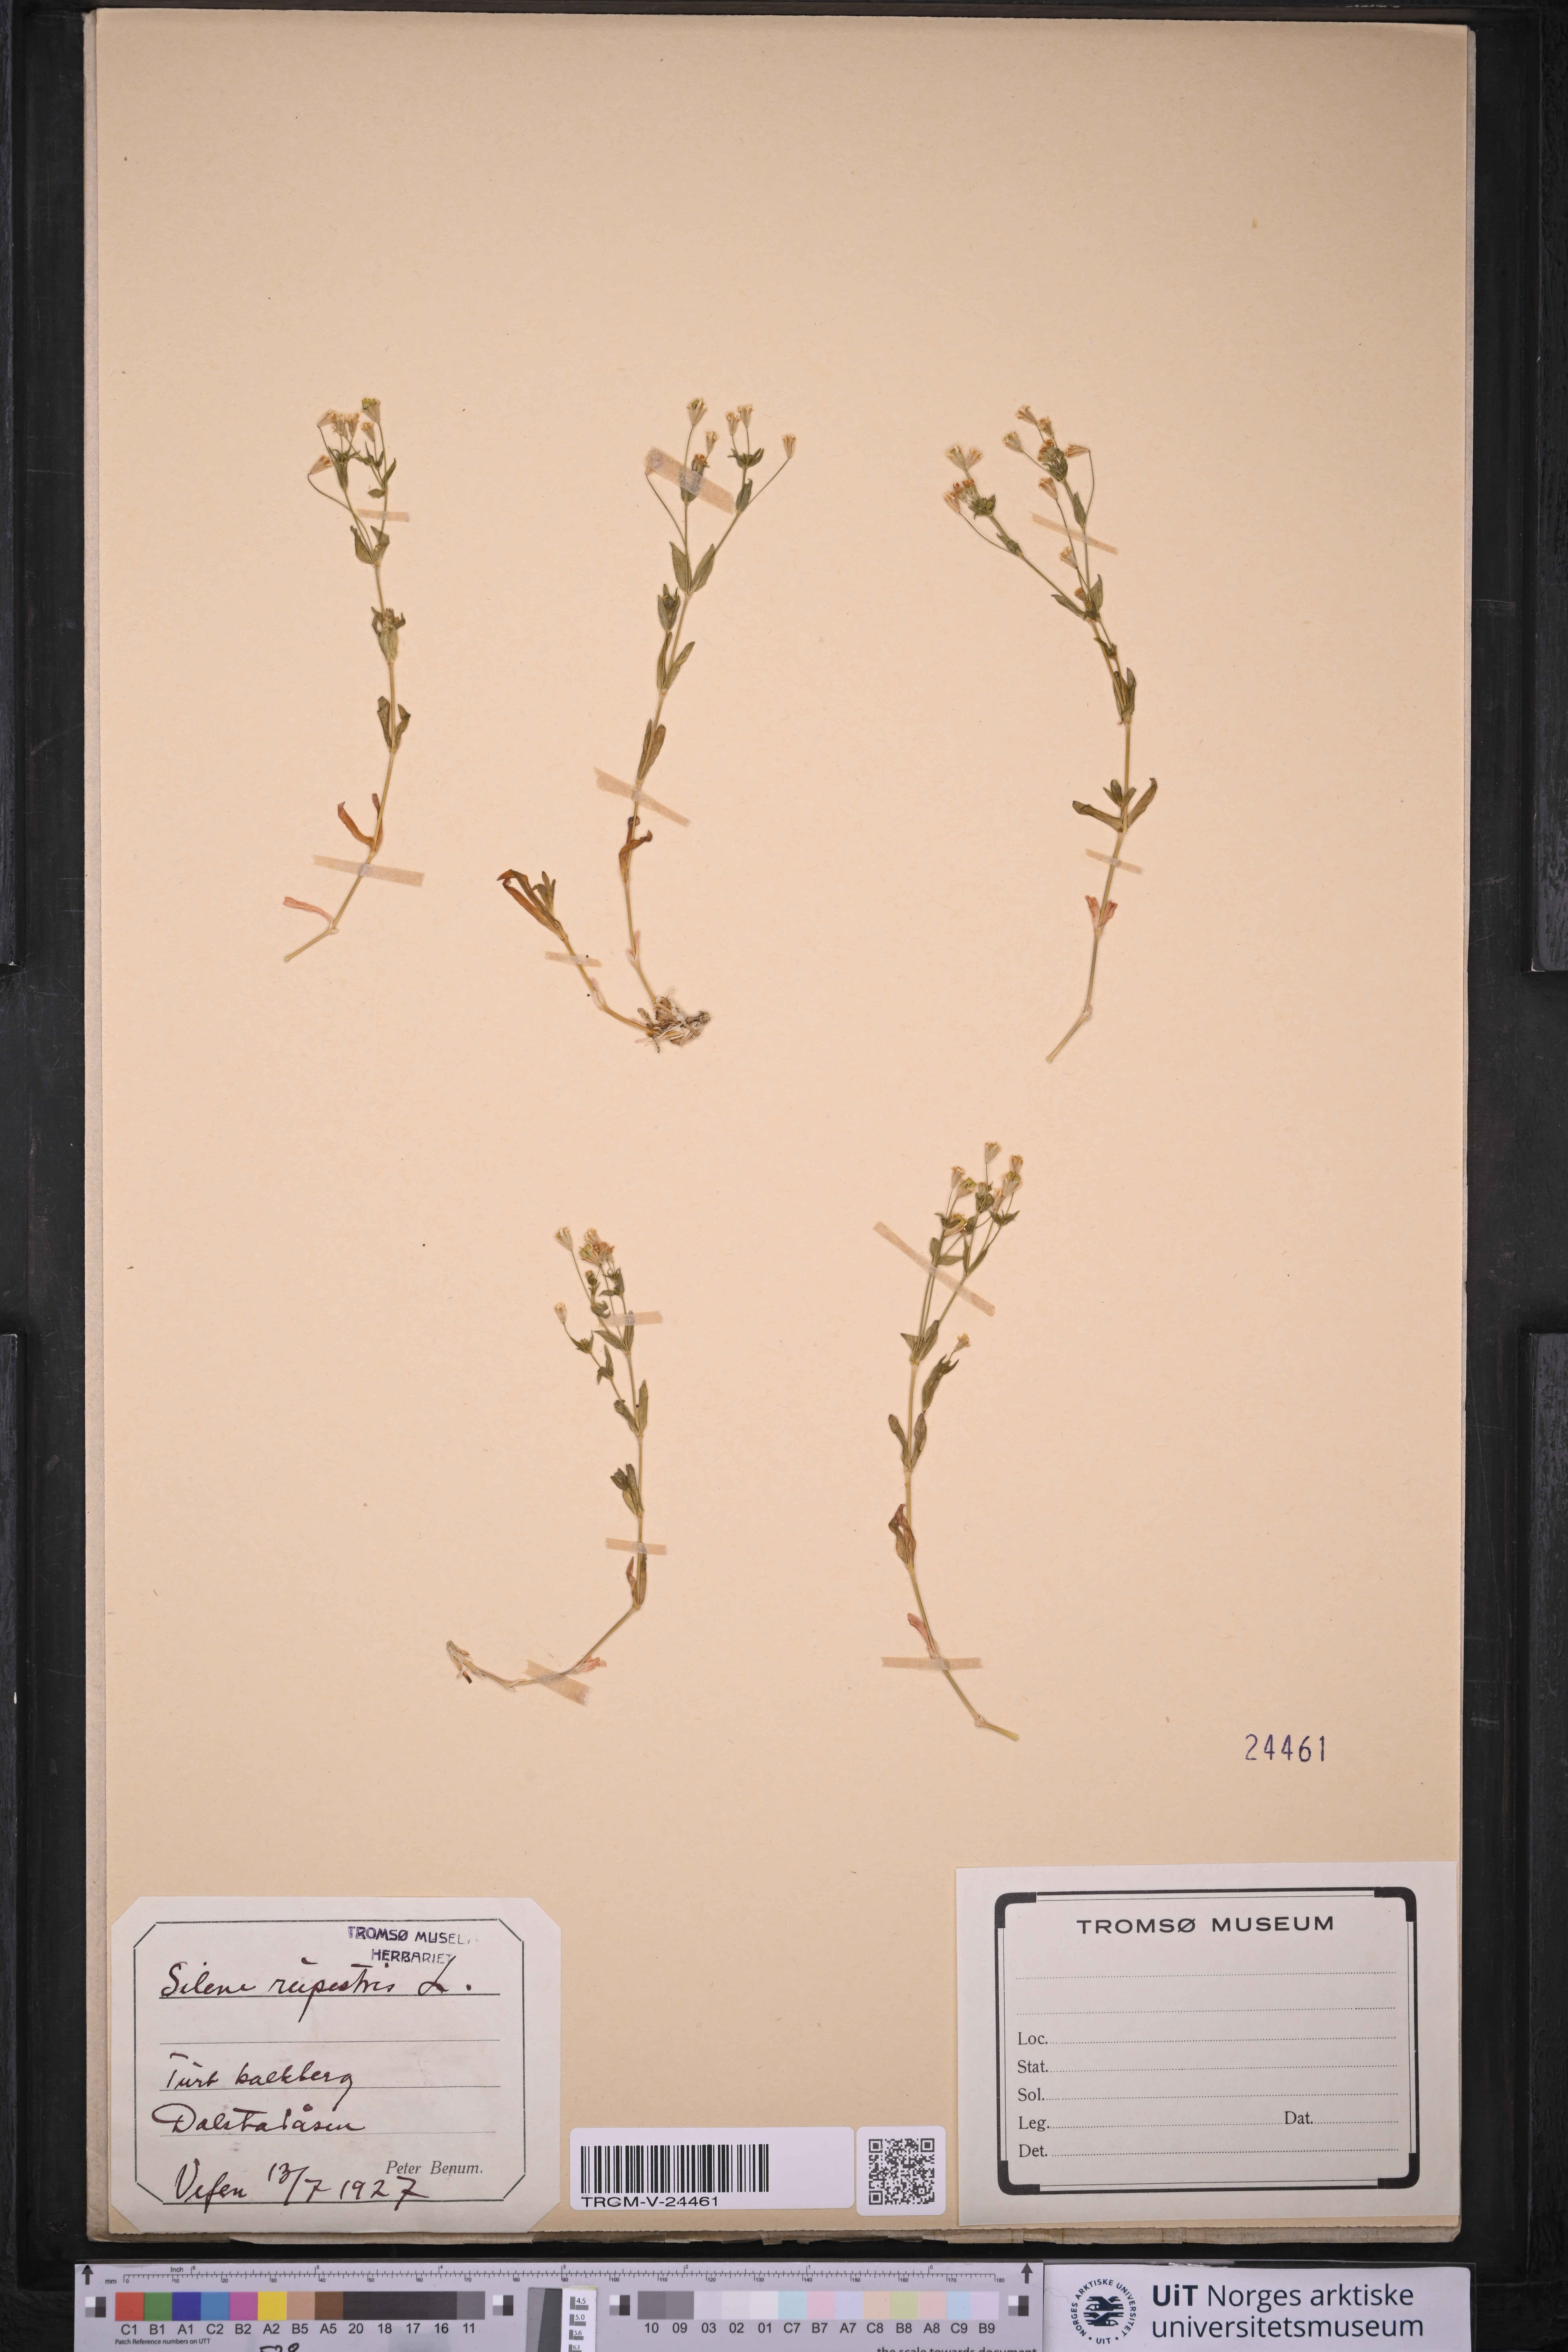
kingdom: Plantae
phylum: Tracheophyta
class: Magnoliopsida
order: Caryophyllales
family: Caryophyllaceae
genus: Atocion
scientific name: Atocion rupestre
